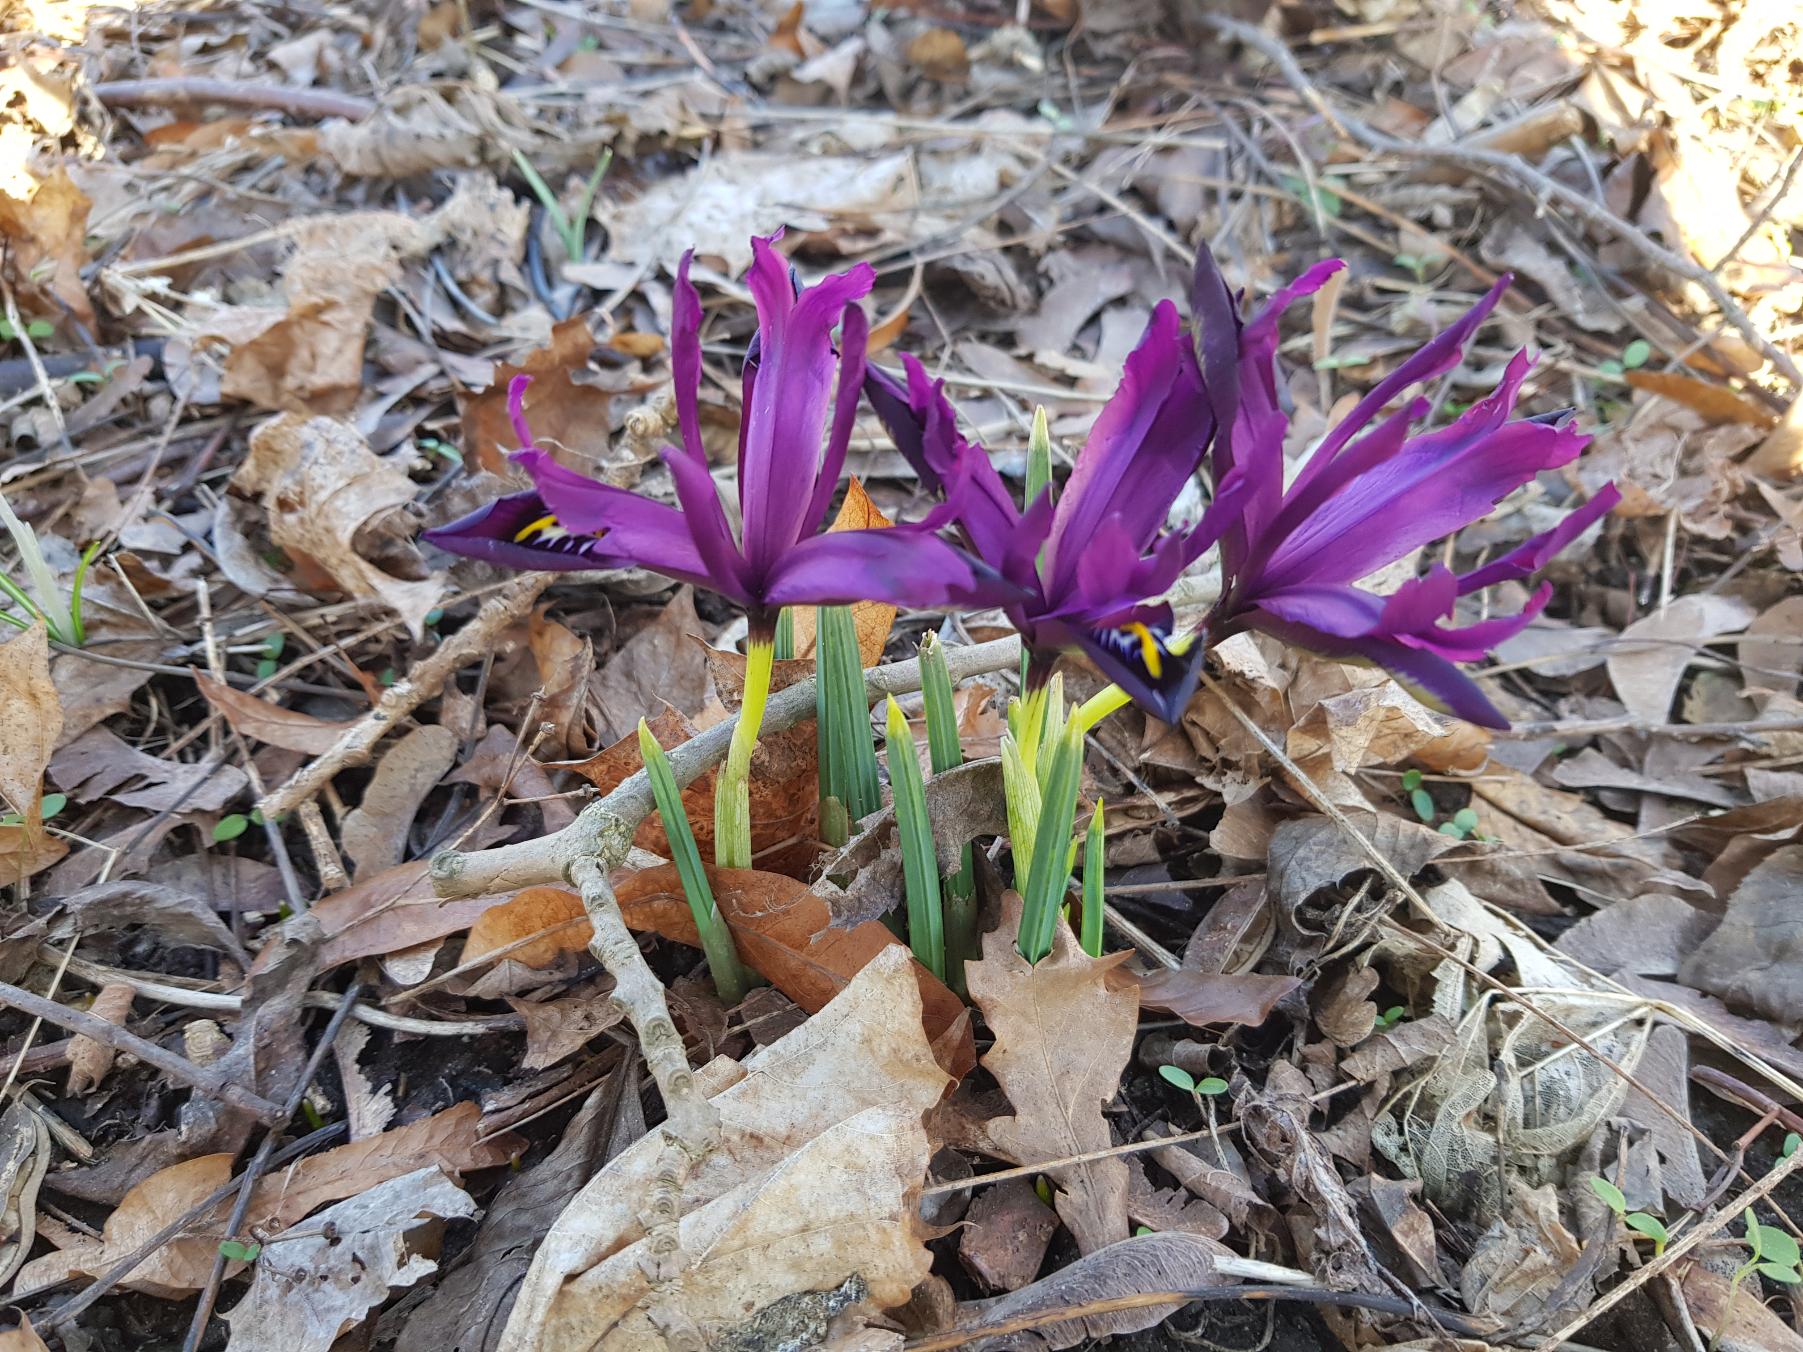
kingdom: Plantae
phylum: Tracheophyta
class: Liliopsida
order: Asparagales
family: Iridaceae
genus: Iris
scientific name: Iris reticulata
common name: Vår-iris
